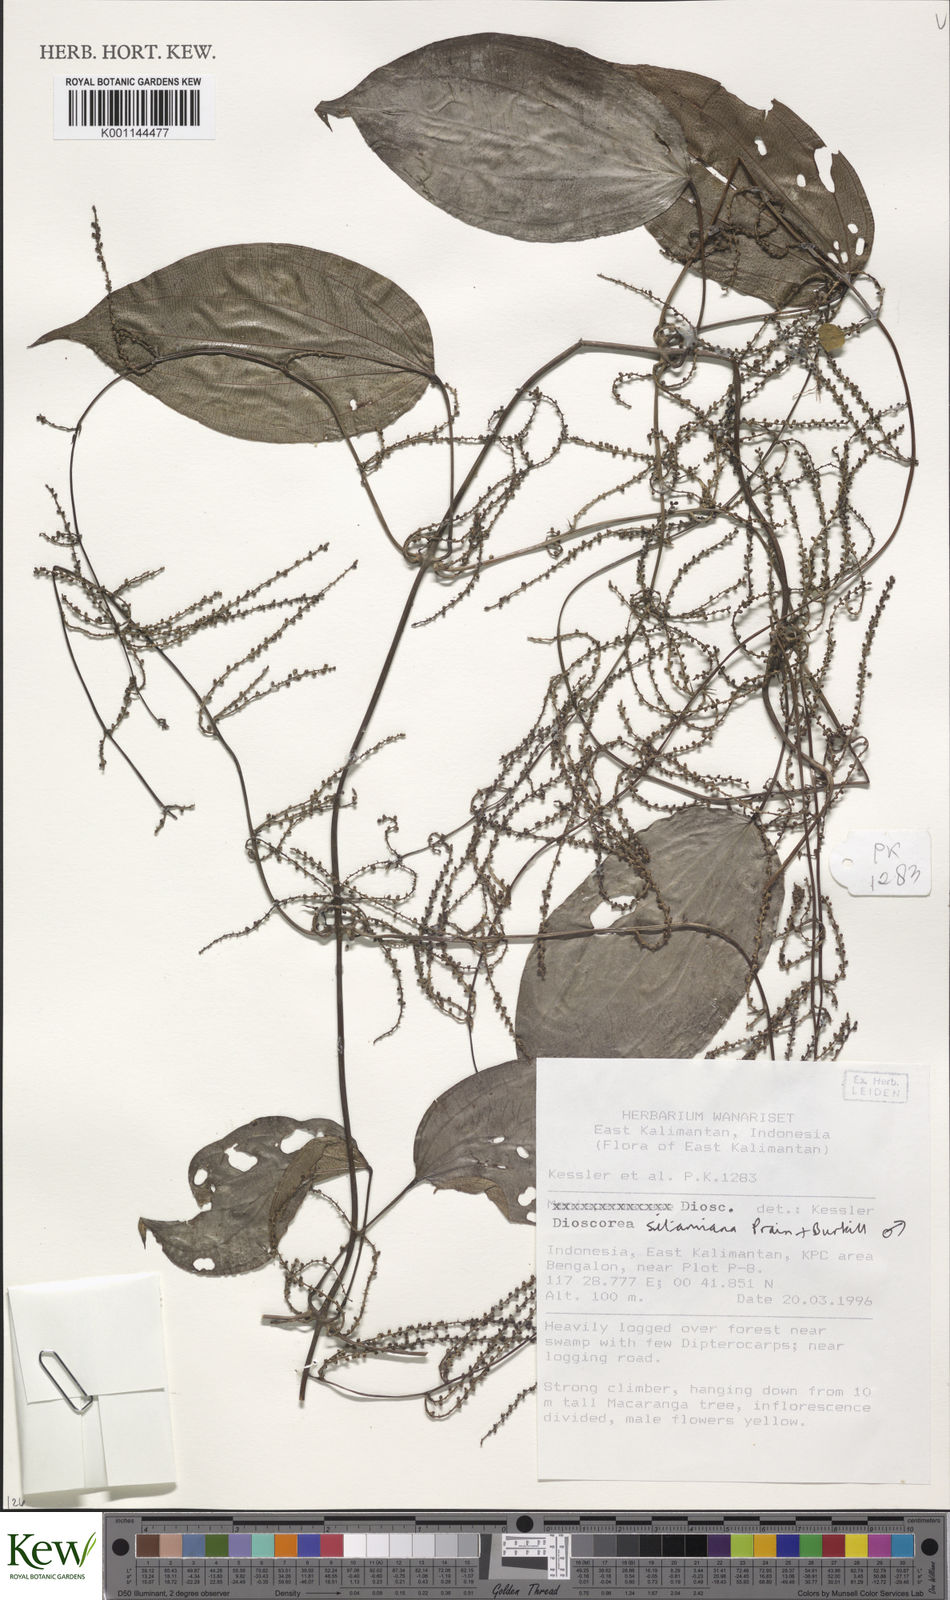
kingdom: Plantae
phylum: Tracheophyta
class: Liliopsida
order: Dioscoreales
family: Dioscoreaceae
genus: Dioscorea
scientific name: Dioscorea sitamiana
